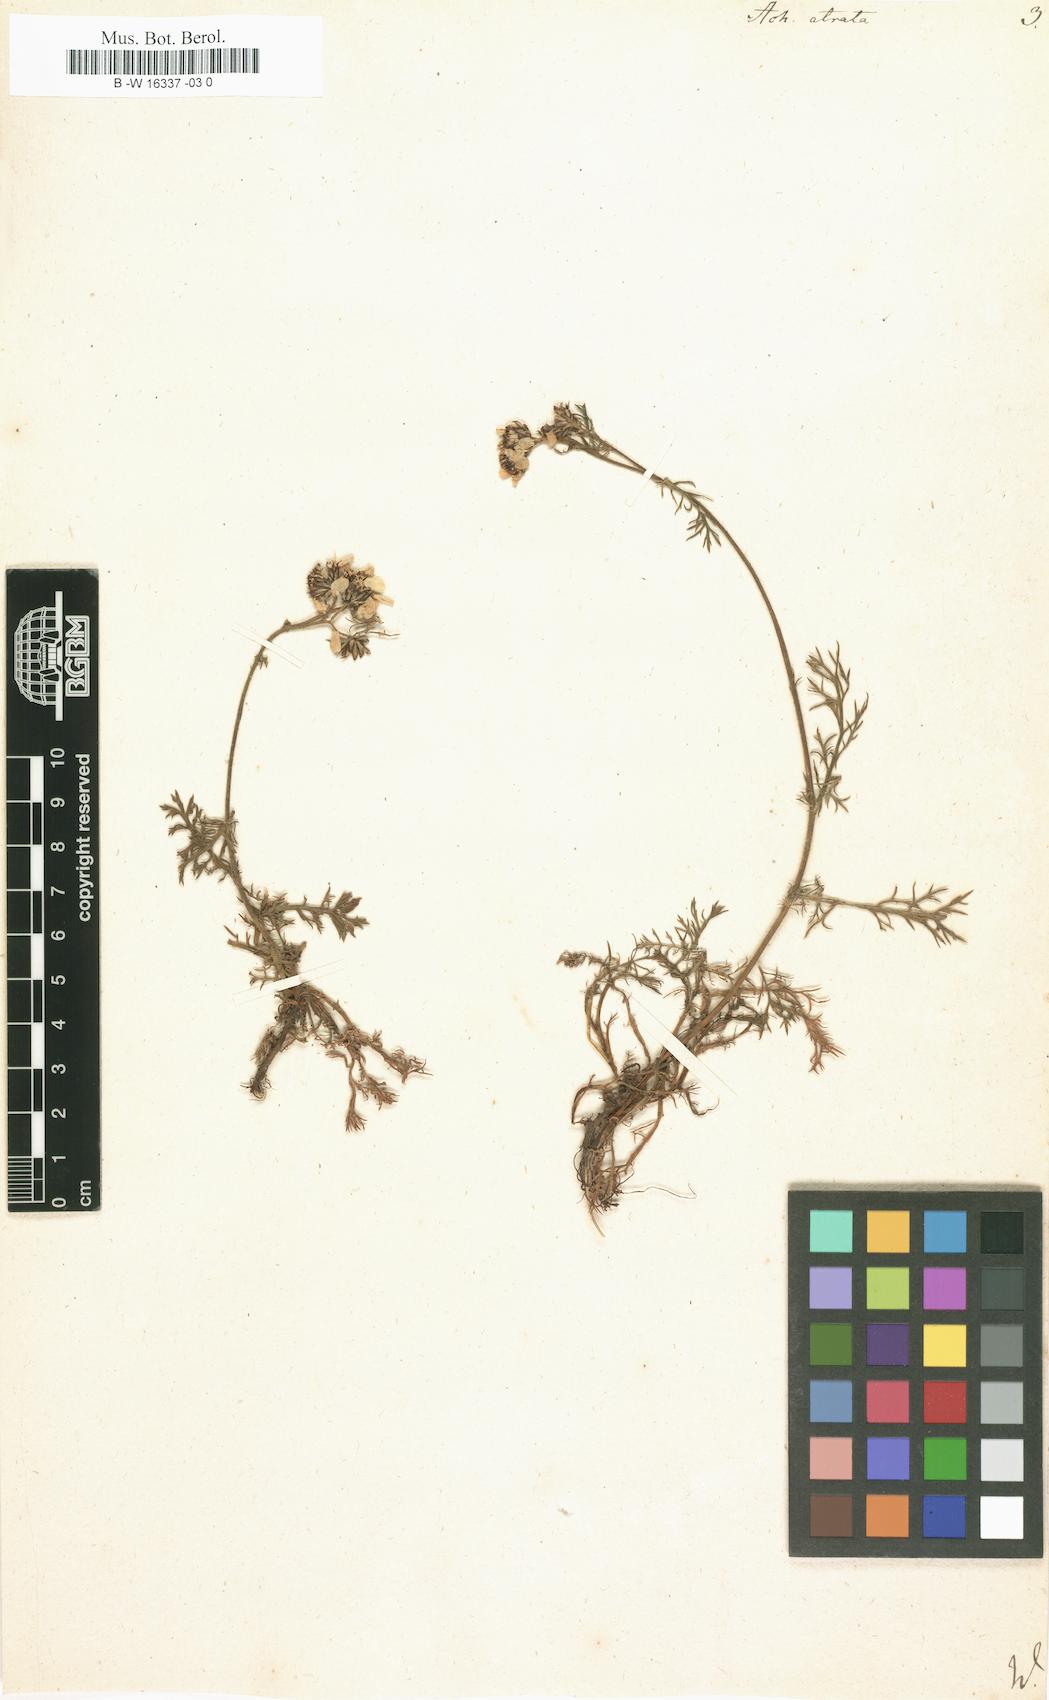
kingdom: Plantae
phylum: Tracheophyta
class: Magnoliopsida
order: Asterales
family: Asteraceae
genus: Achillea
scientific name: Achillea atrata
